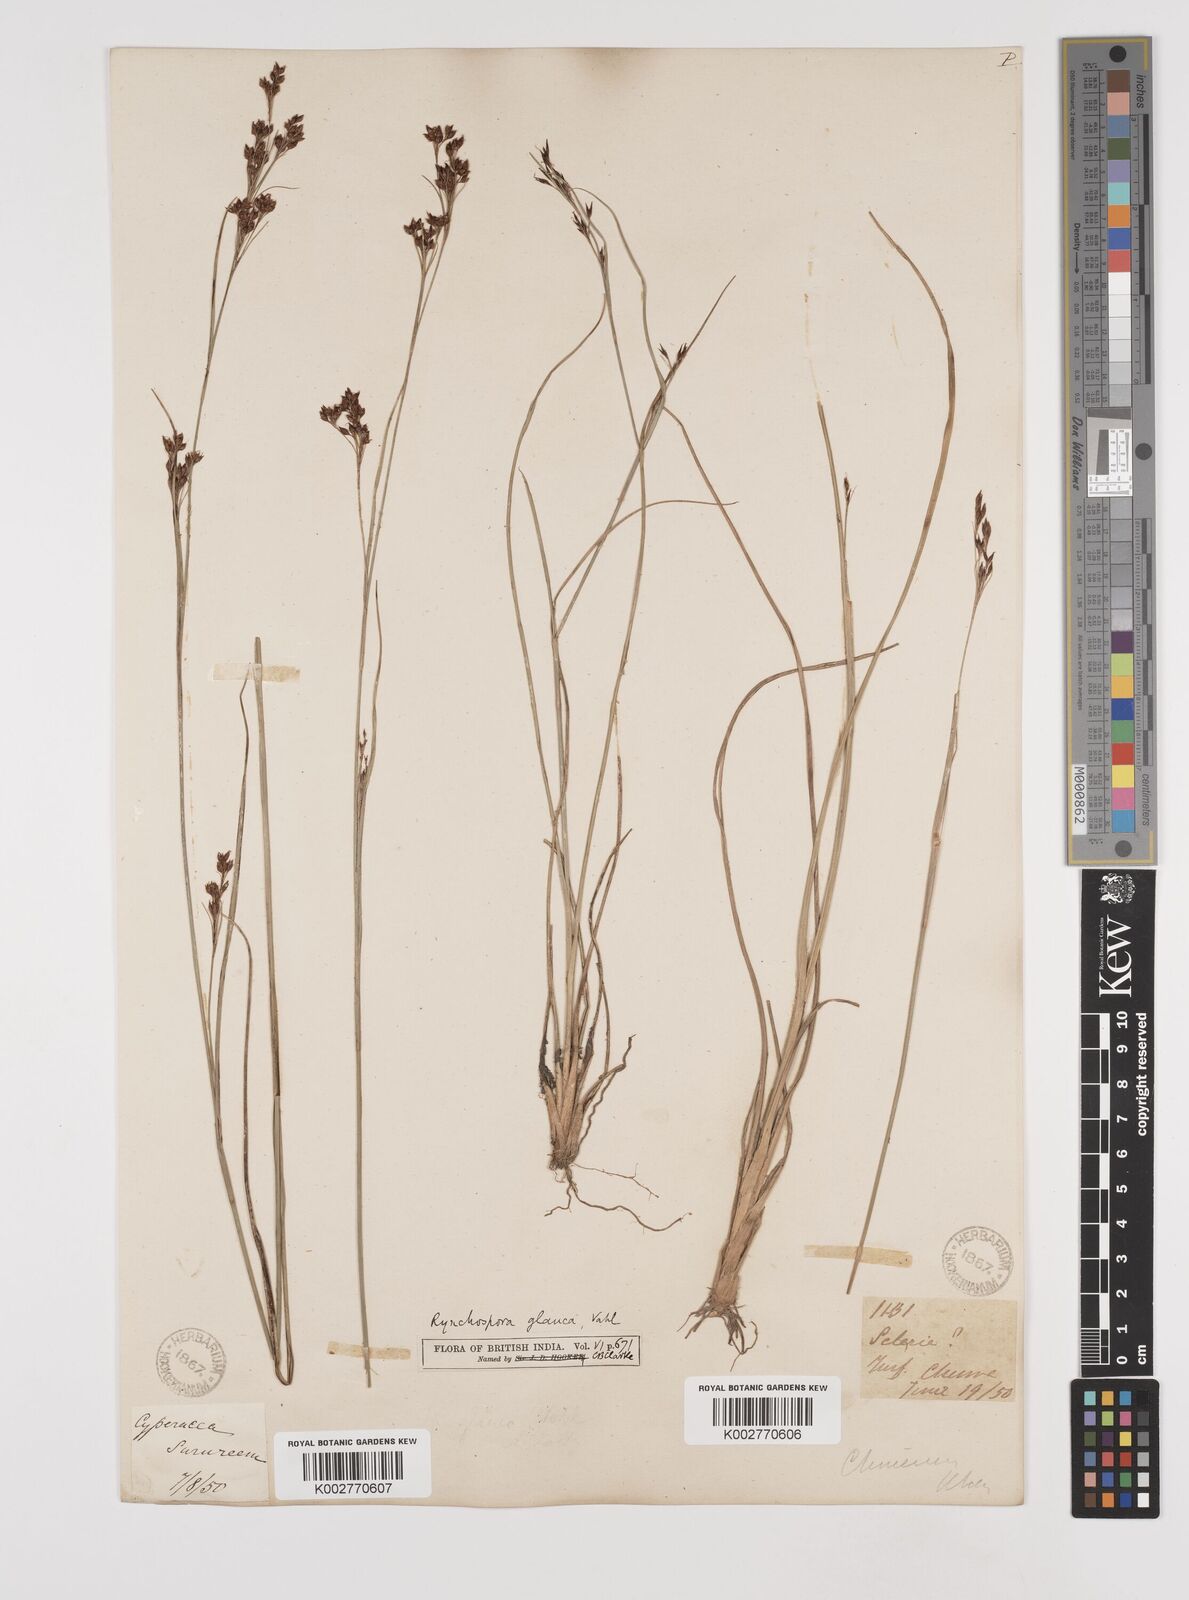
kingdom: Plantae
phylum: Tracheophyta
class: Liliopsida
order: Poales
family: Cyperaceae
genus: Rhynchospora
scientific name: Rhynchospora rugosa
